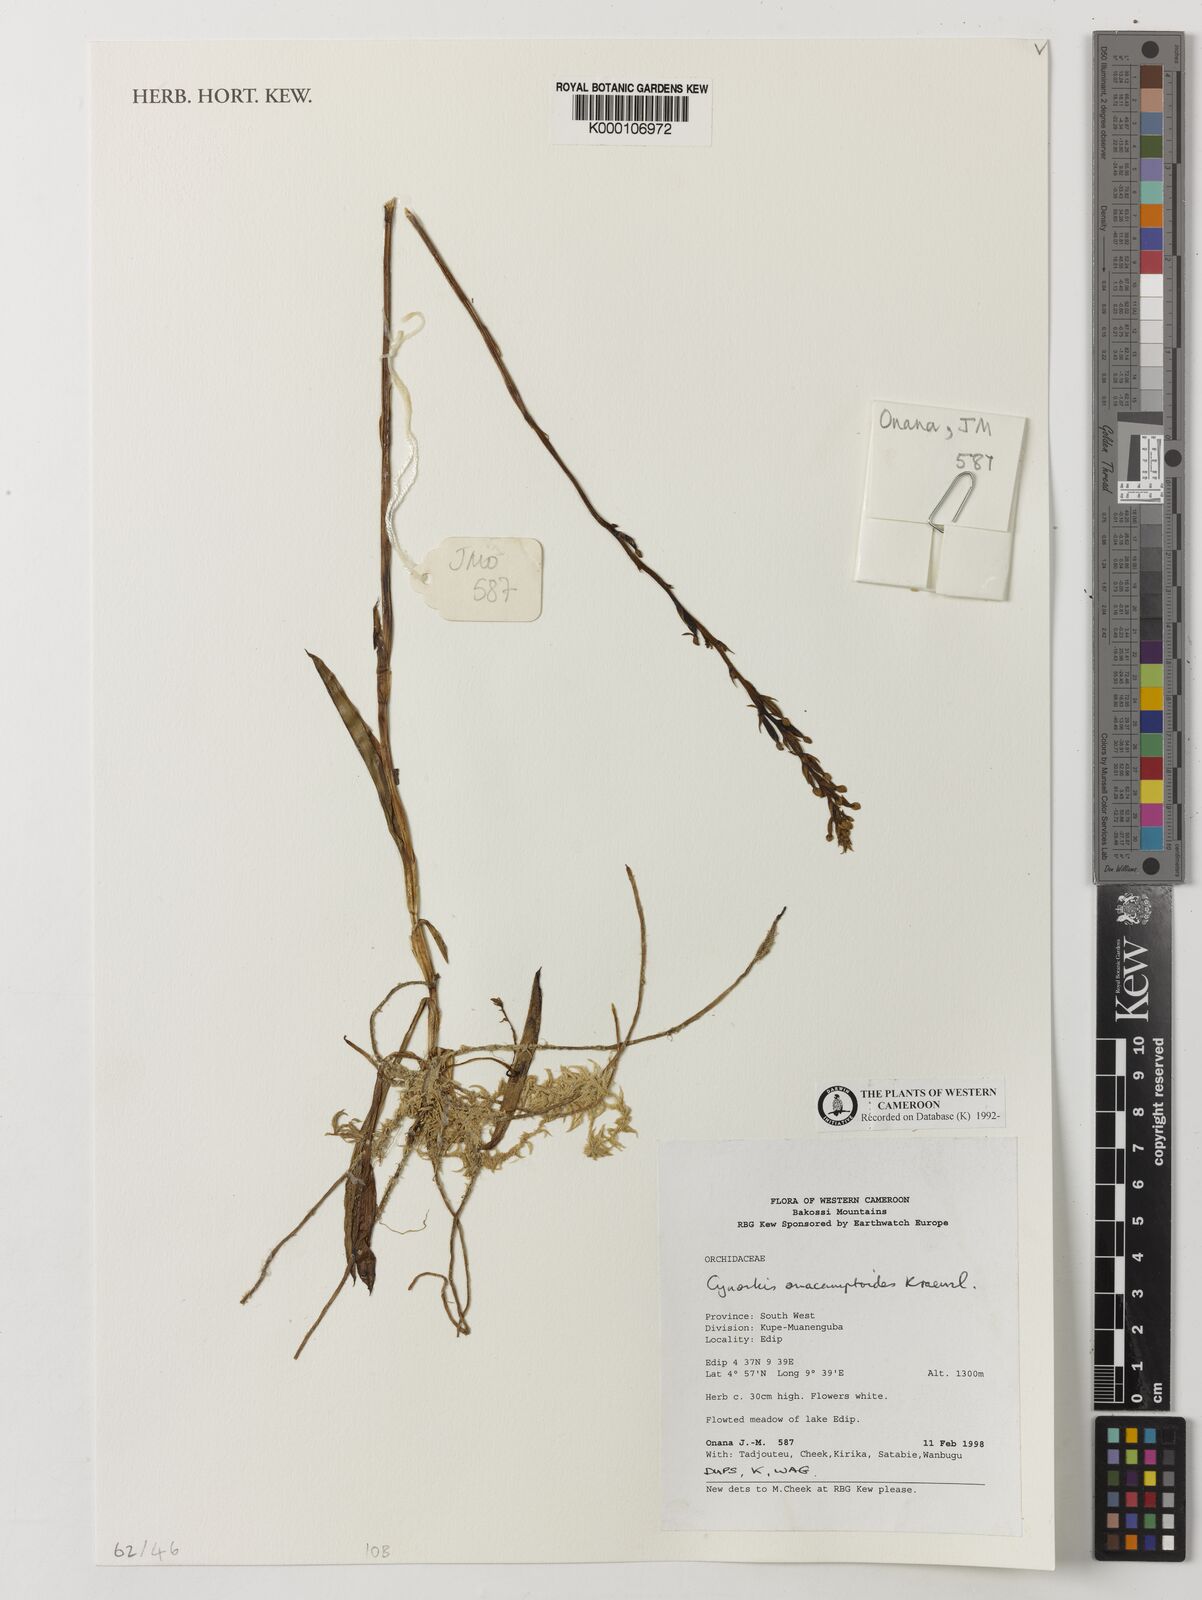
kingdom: Plantae
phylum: Tracheophyta
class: Liliopsida
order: Asparagales
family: Orchidaceae
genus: Cynorkis
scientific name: Cynorkis anacamptoides
